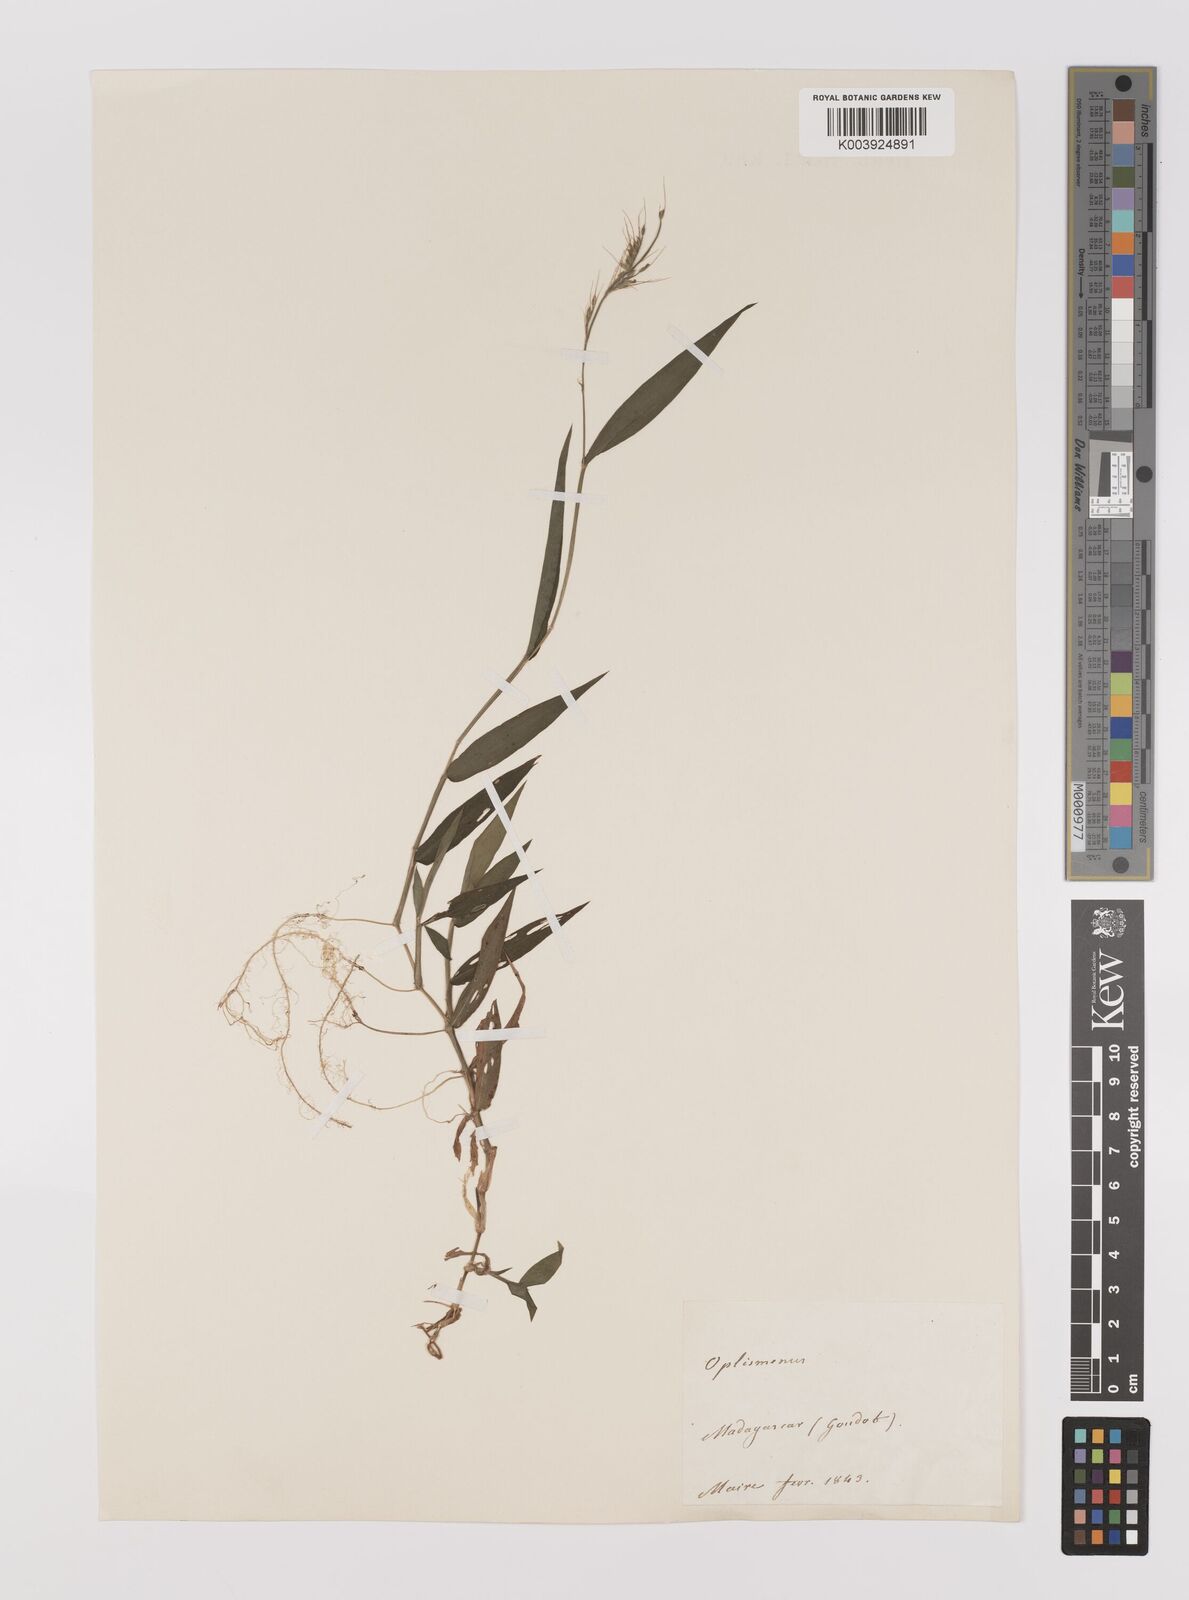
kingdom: Plantae
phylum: Tracheophyta
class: Liliopsida
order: Poales
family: Poaceae
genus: Oplismenus
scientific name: Oplismenus hirtellus
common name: Basketgrass
